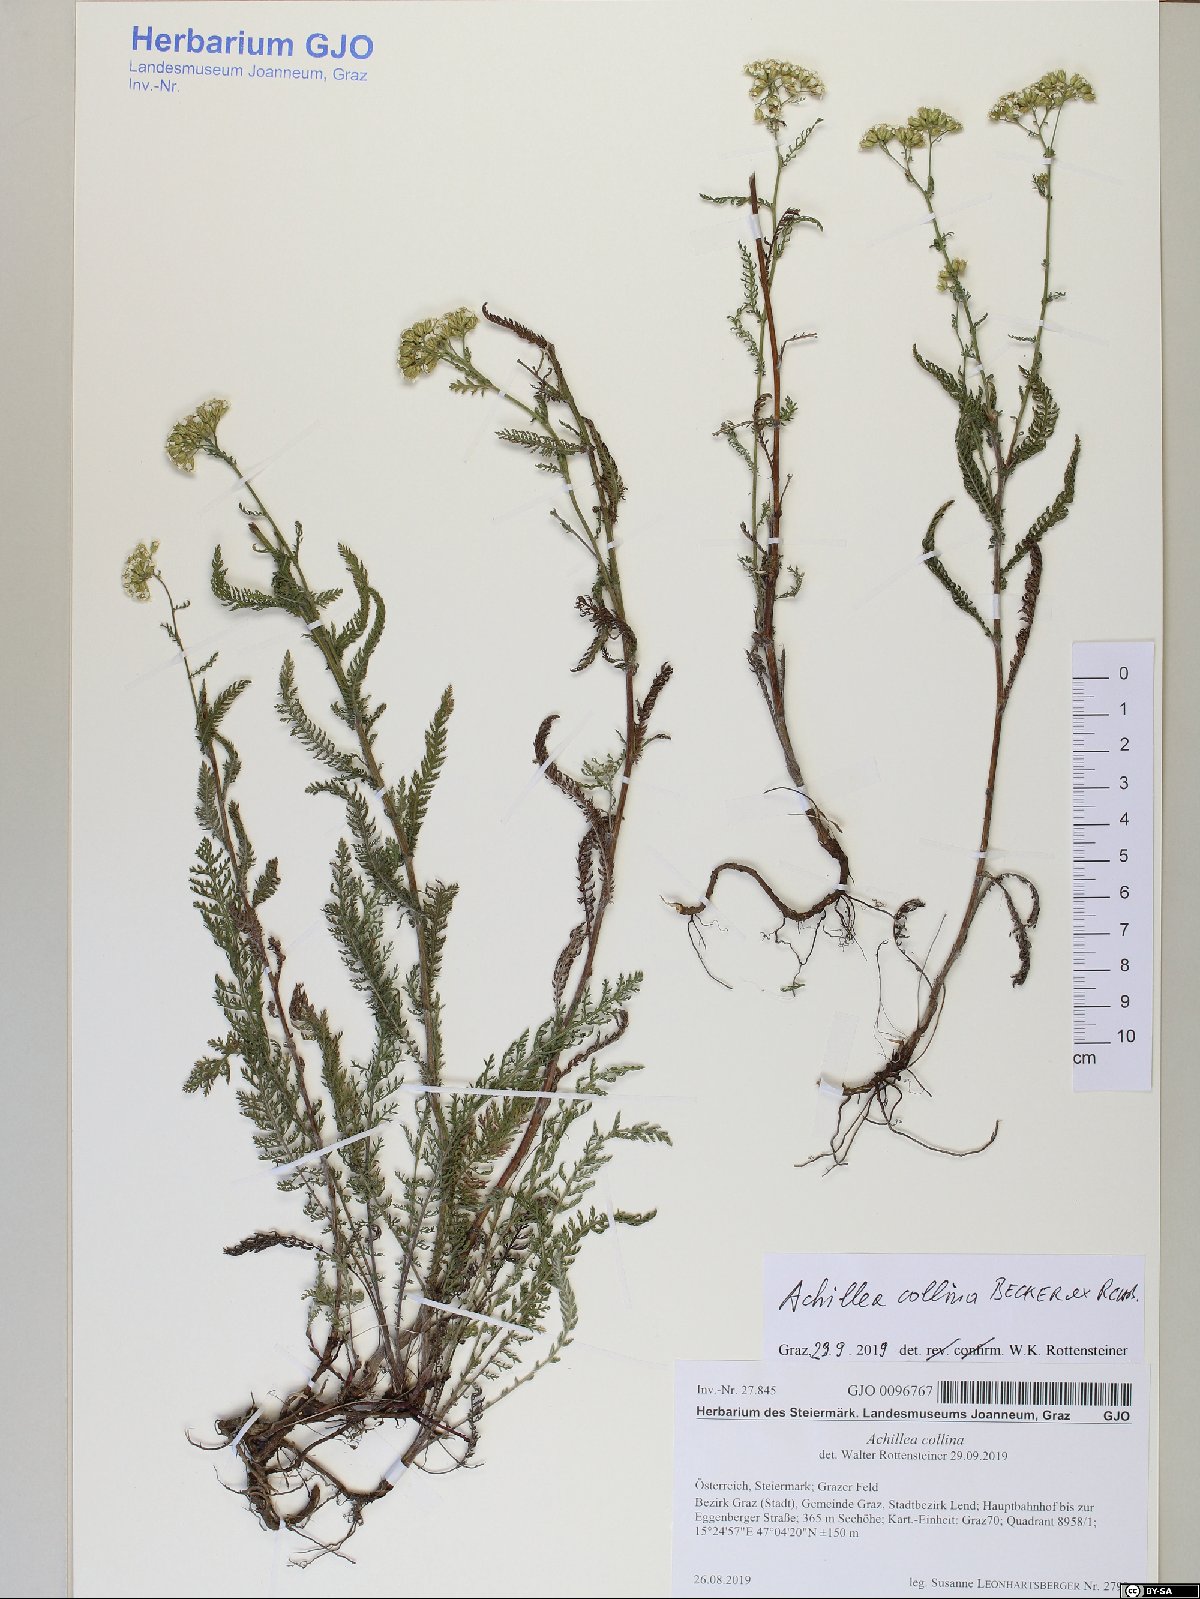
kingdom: Plantae
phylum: Tracheophyta
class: Magnoliopsida
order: Asterales
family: Asteraceae
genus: Achillea
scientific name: Achillea collina
